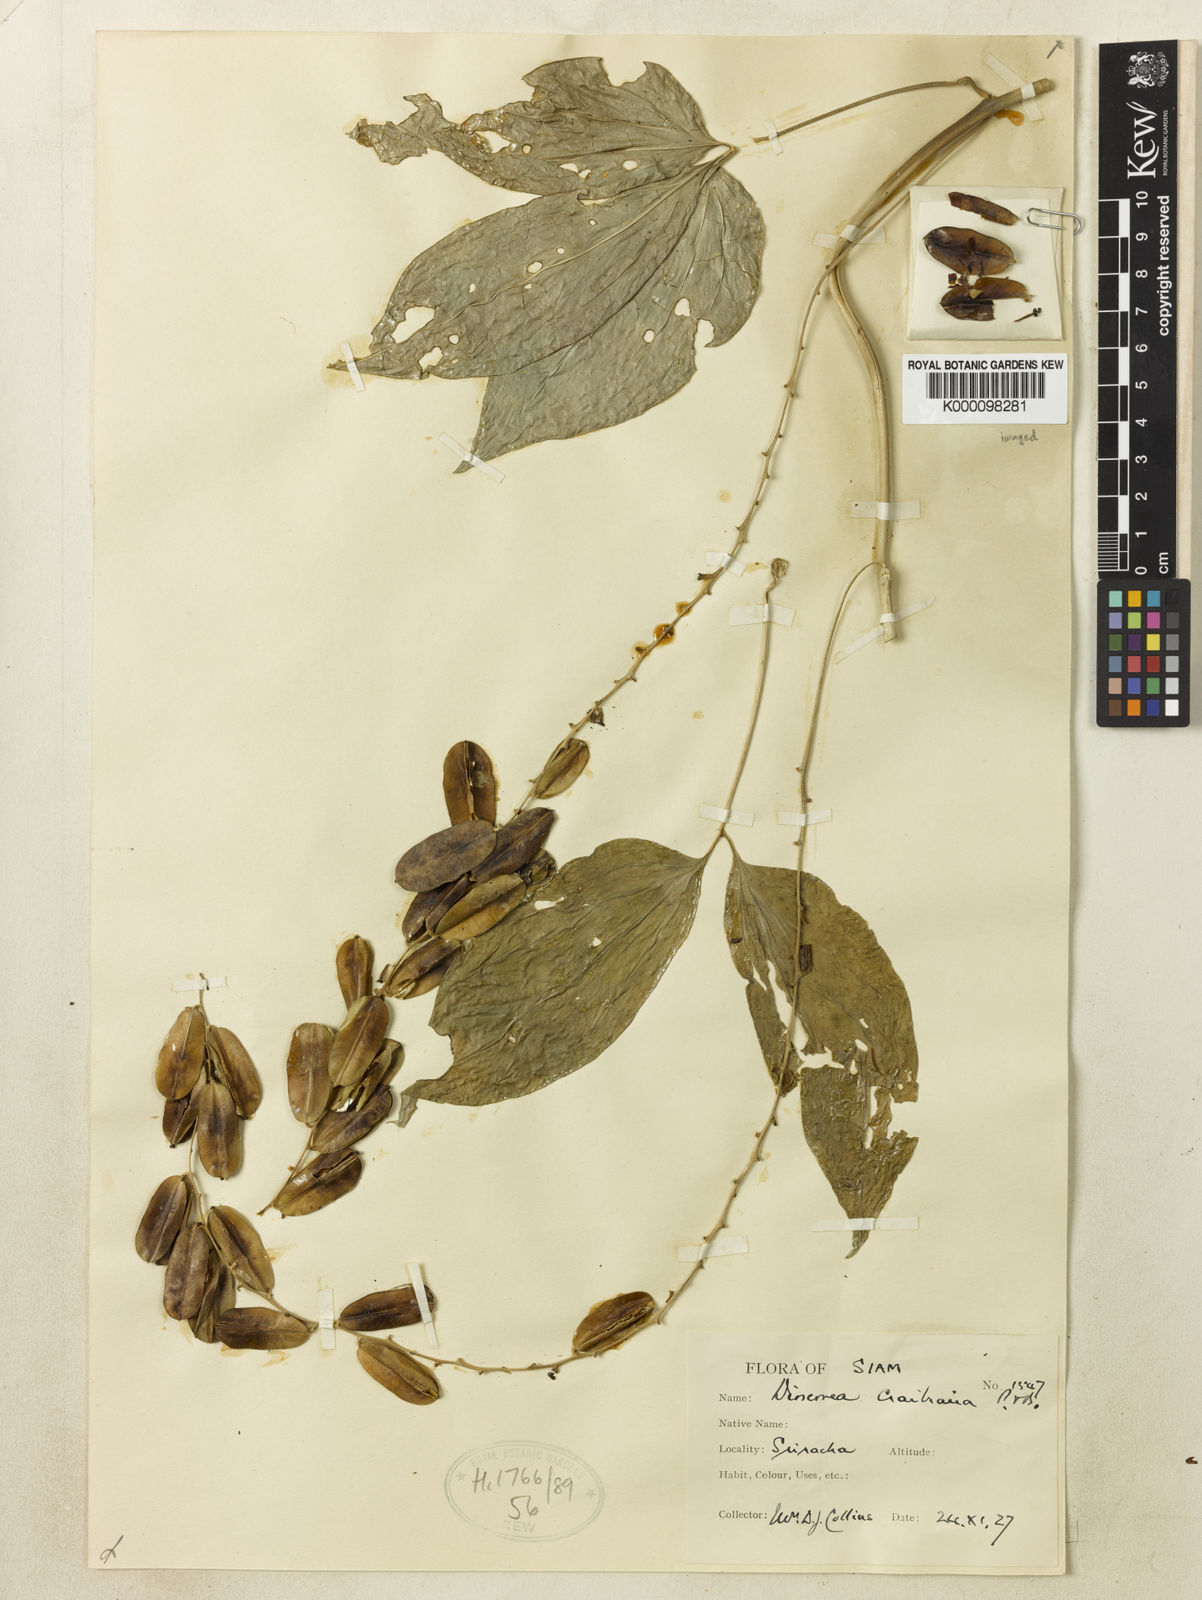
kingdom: Plantae
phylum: Tracheophyta
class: Liliopsida
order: Dioscoreales
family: Dioscoreaceae
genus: Dioscorea
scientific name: Dioscorea craibiana
